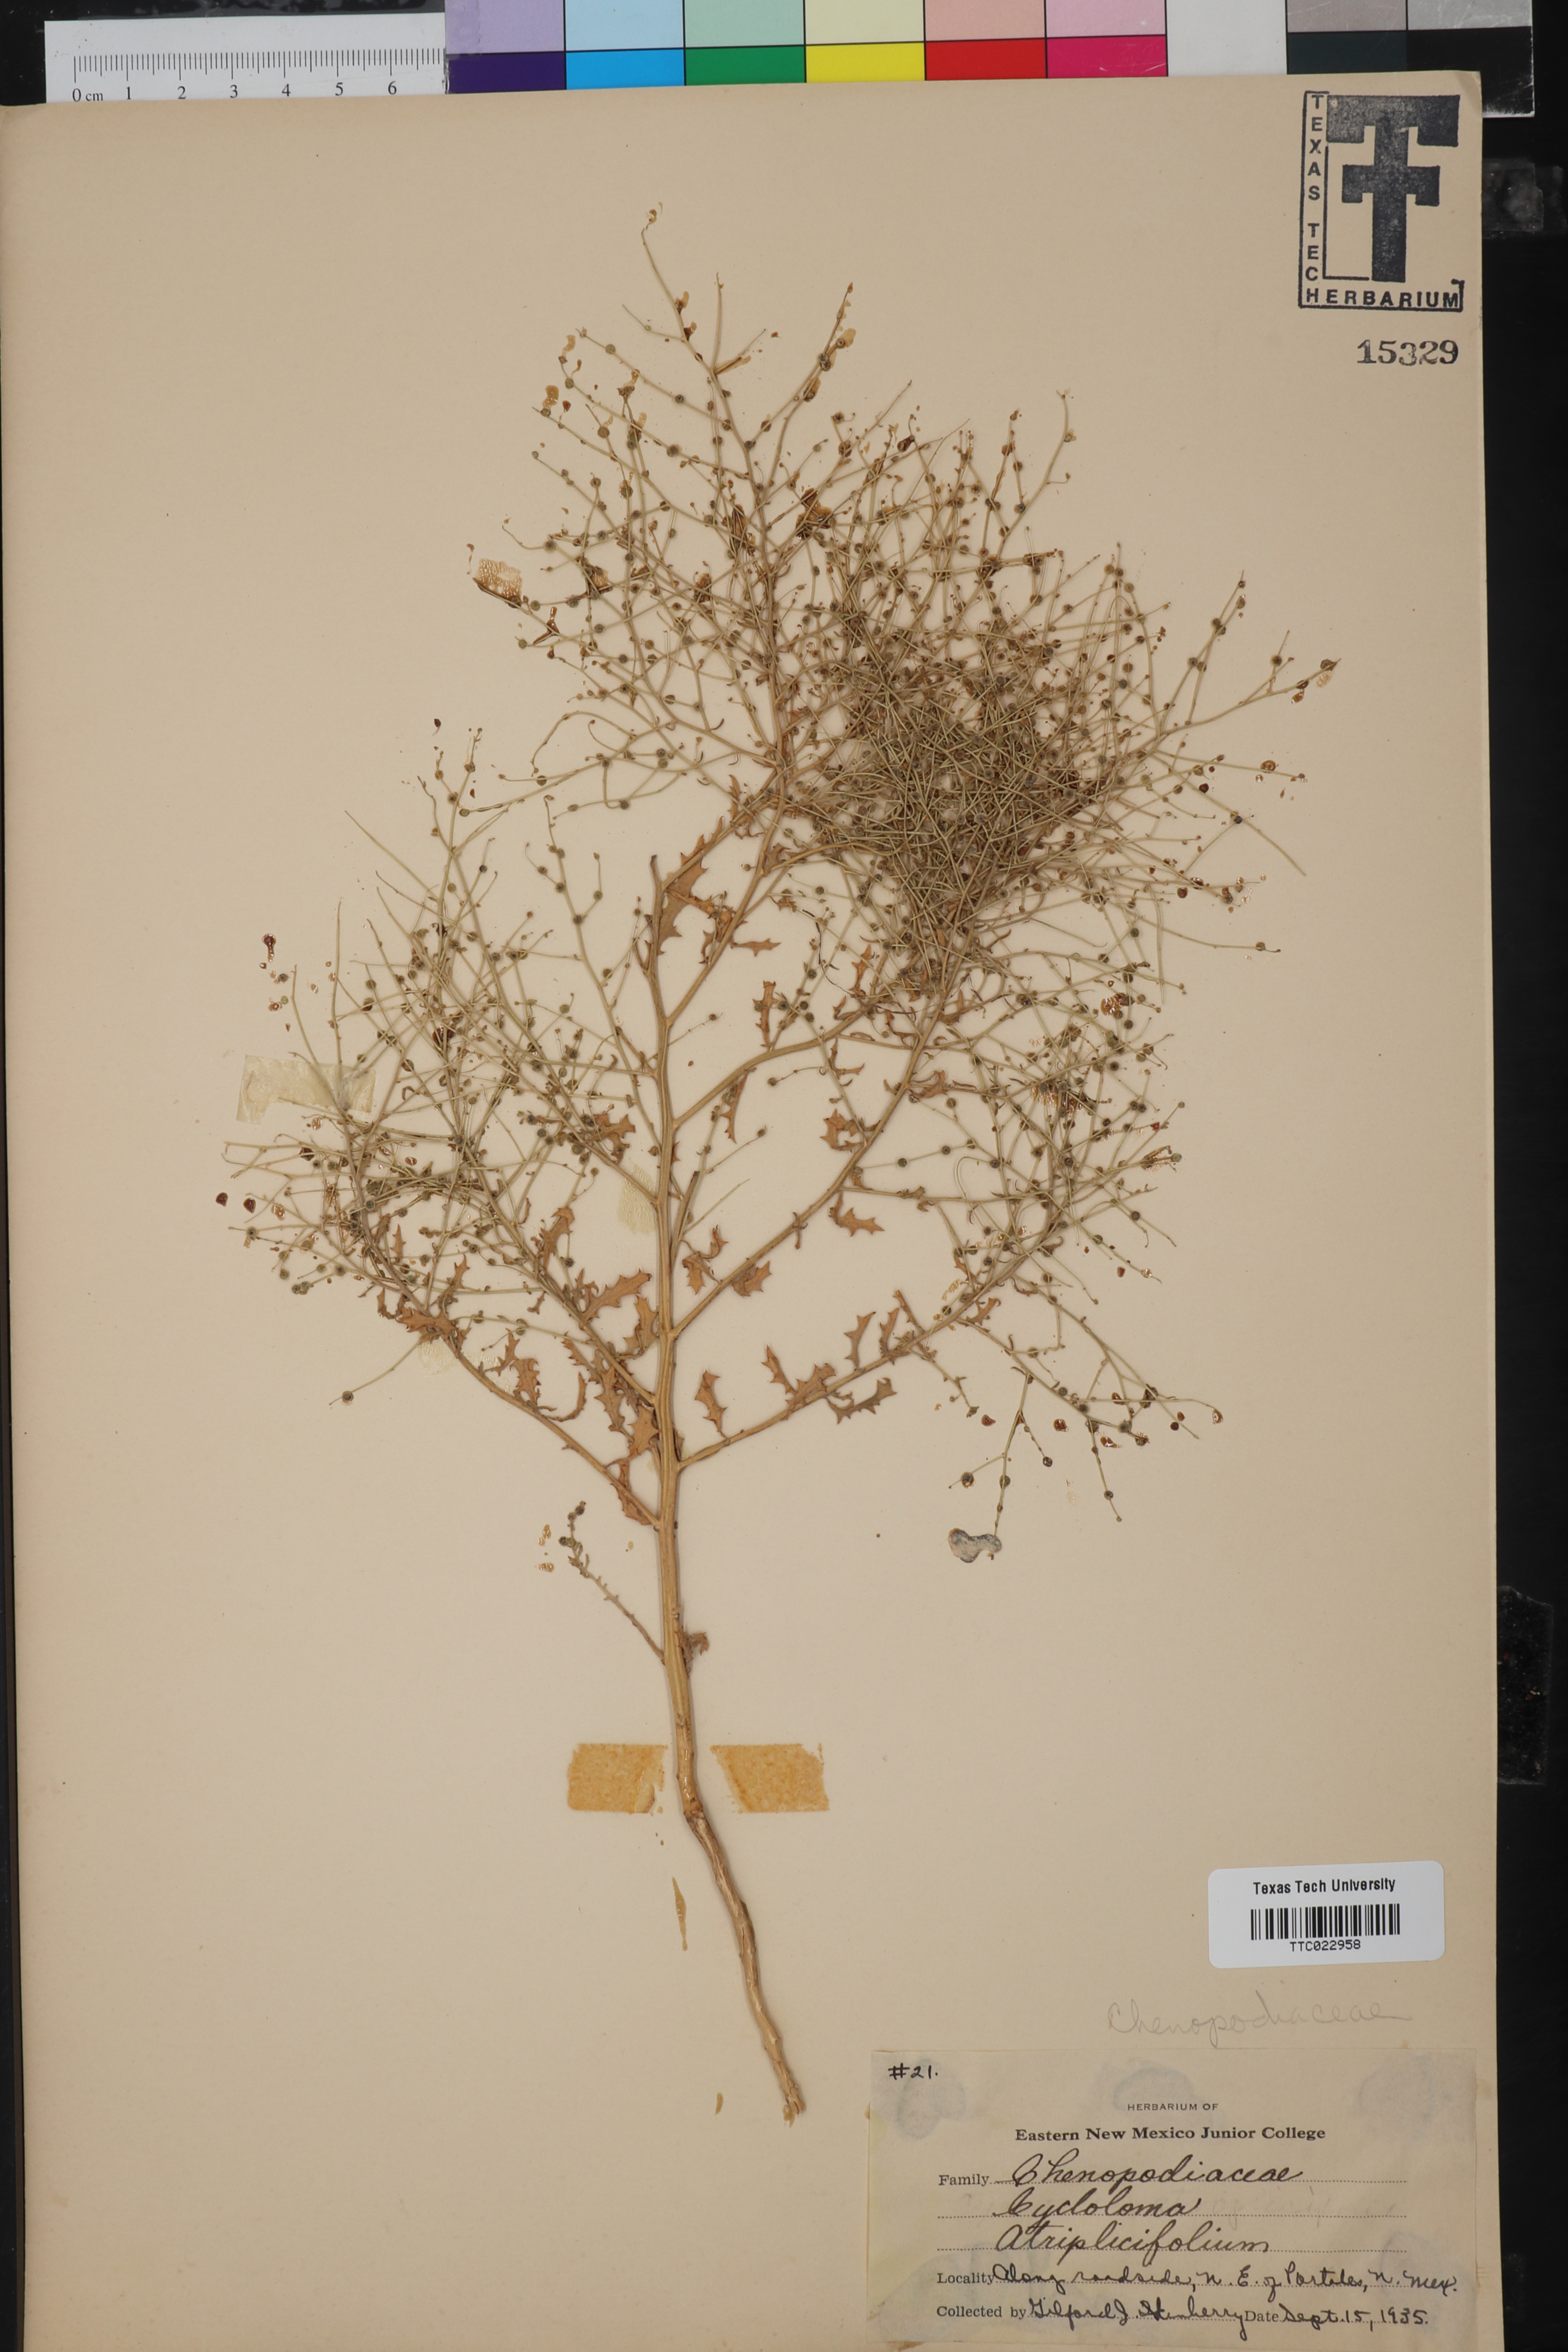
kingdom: Plantae
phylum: Tracheophyta
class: Magnoliopsida
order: Caryophyllales
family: Amaranthaceae
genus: Dysphania
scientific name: Dysphania atriplicifolia
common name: Plains tumbleweed
